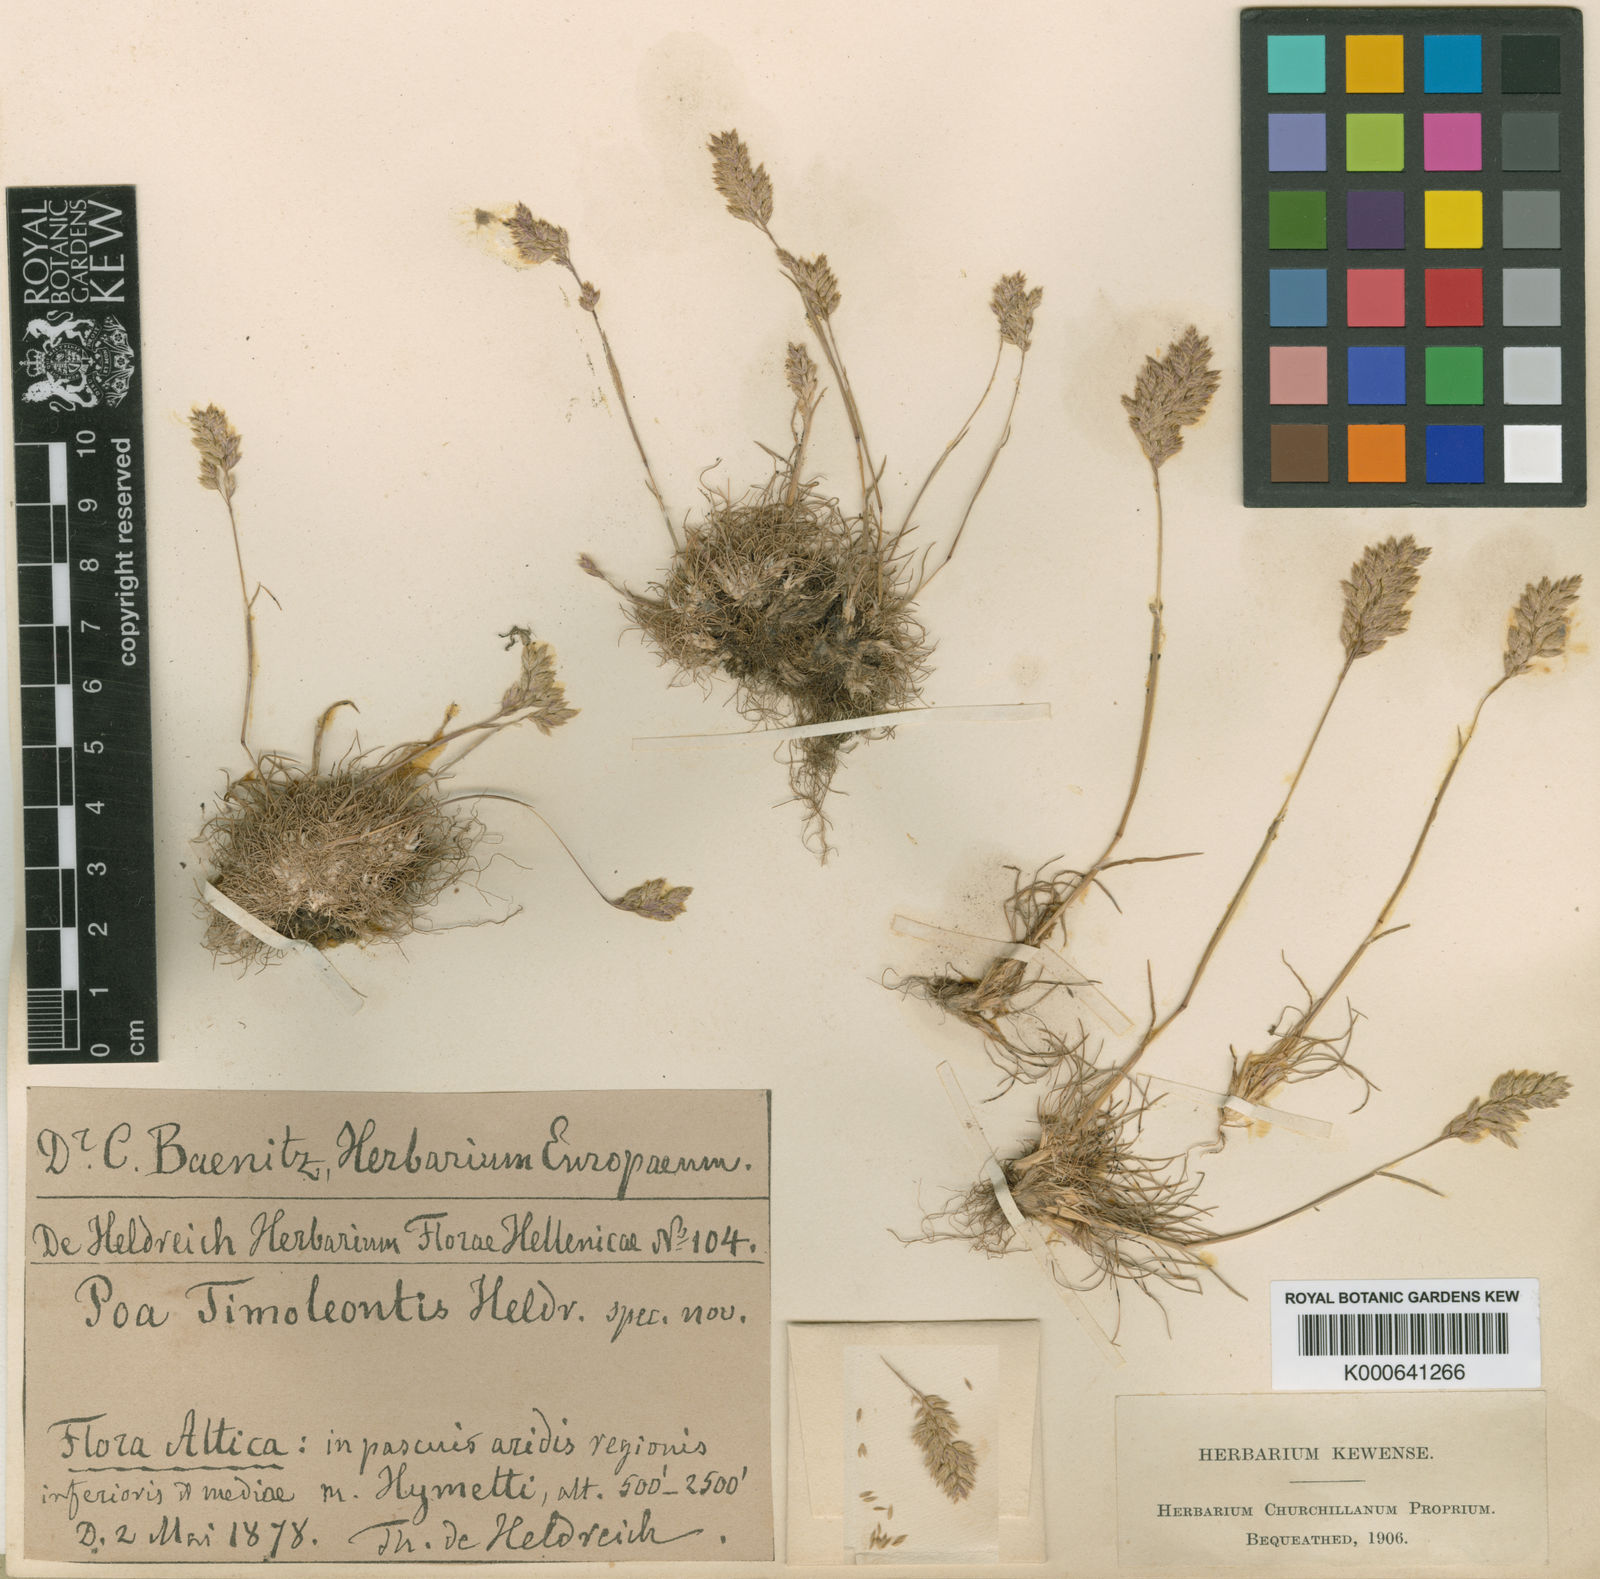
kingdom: Plantae
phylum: Tracheophyta
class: Liliopsida
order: Poales
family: Poaceae
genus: Poa
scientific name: Poa timoleontis
